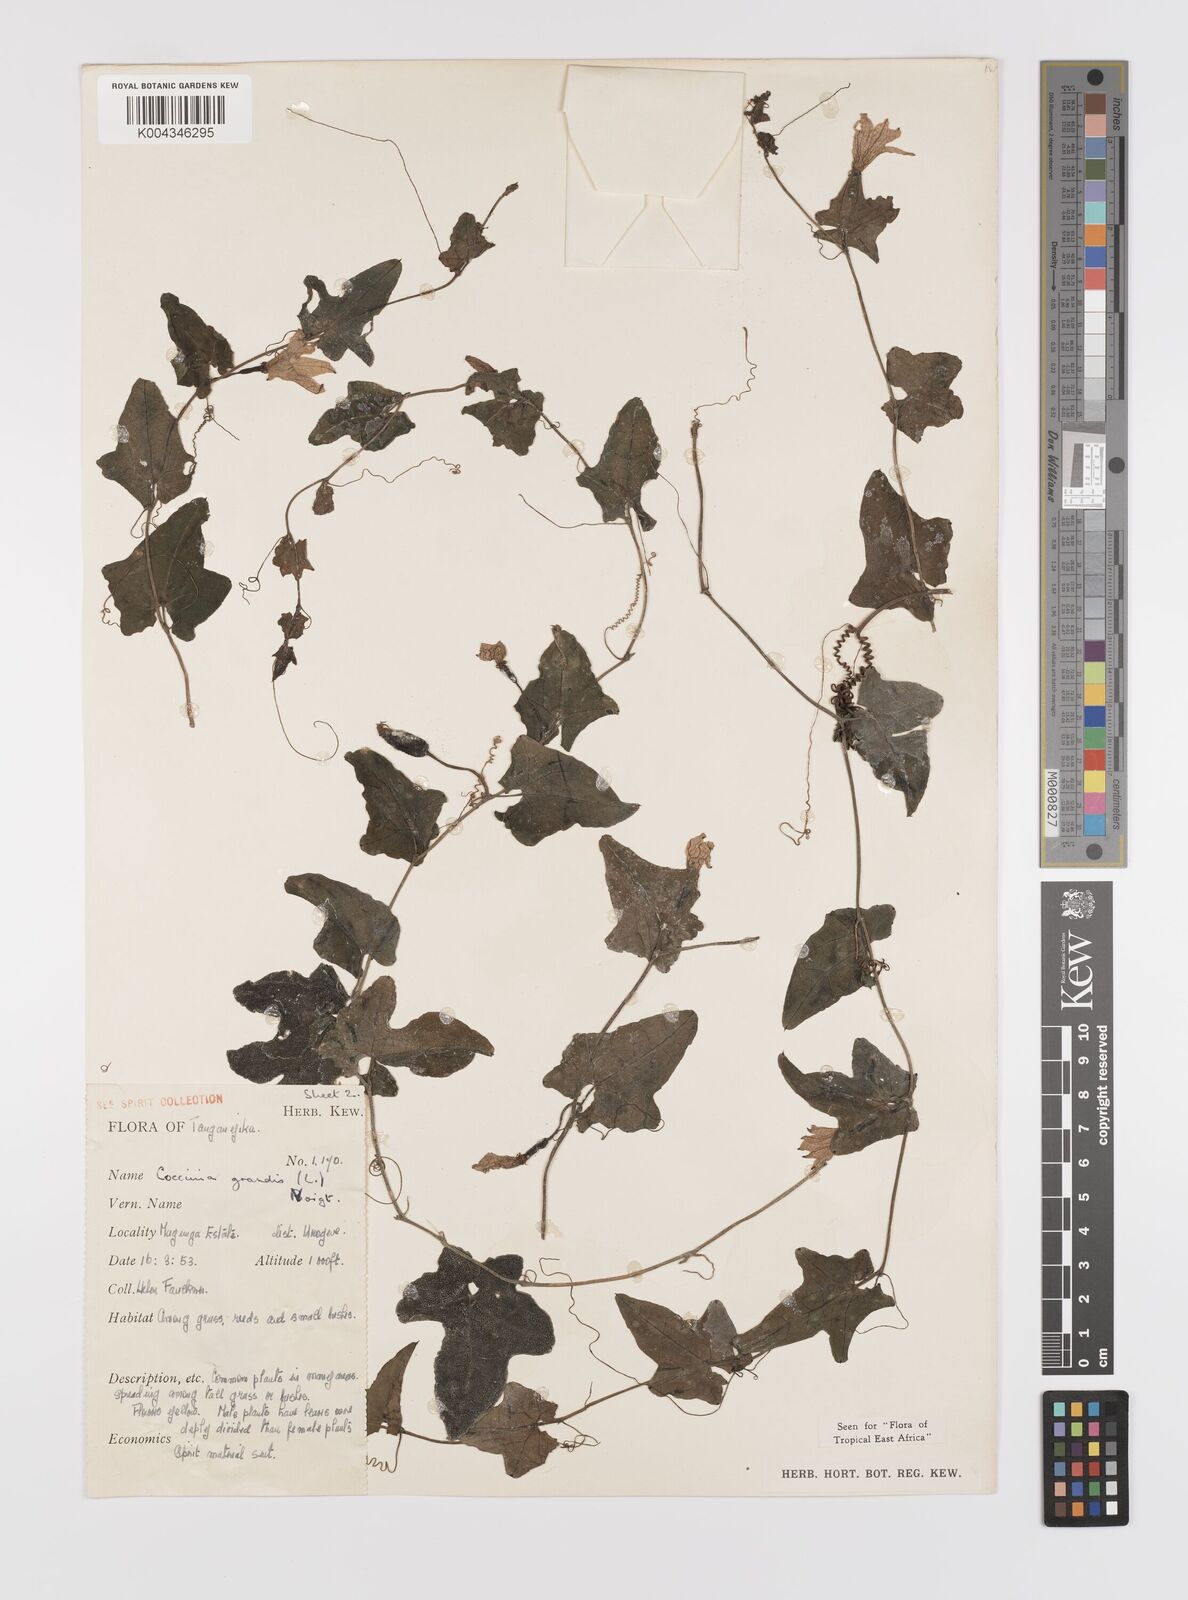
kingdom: Plantae
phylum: Tracheophyta
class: Magnoliopsida
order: Cucurbitales
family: Cucurbitaceae
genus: Coccinia
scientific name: Coccinia grandis
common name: Ivy gourd
